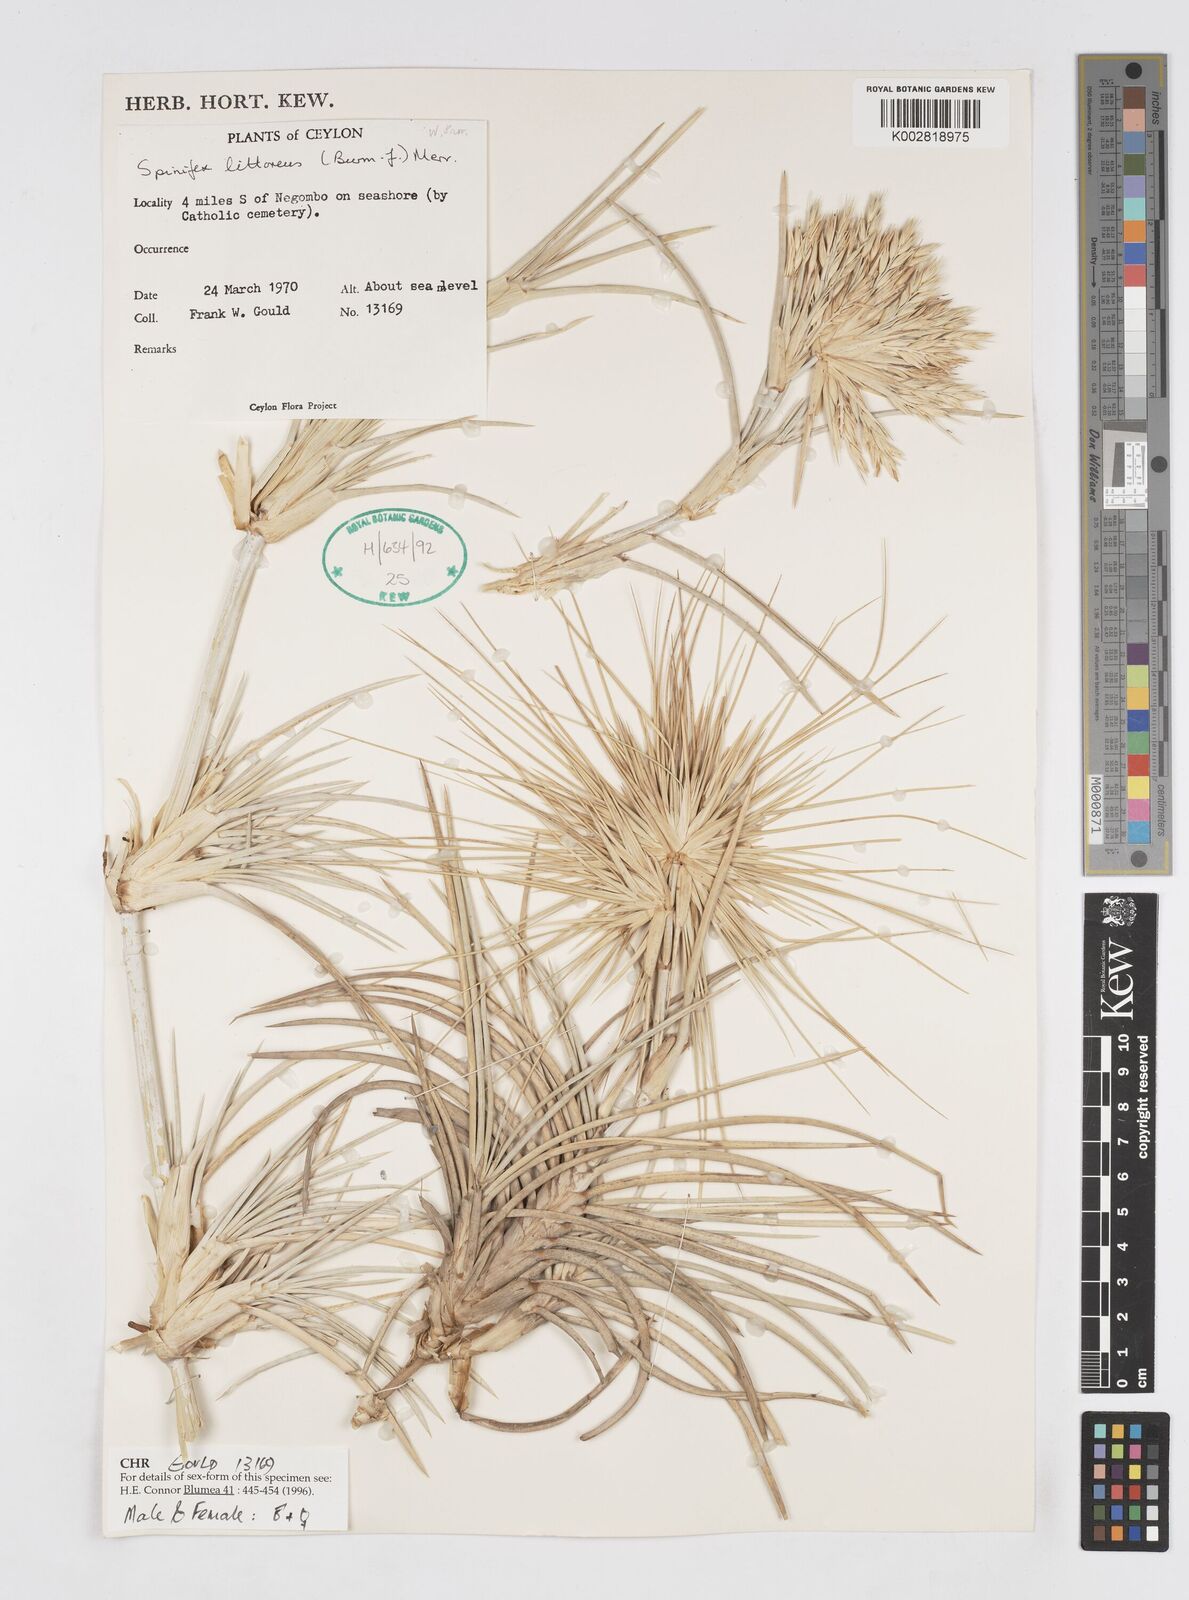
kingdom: Plantae
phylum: Tracheophyta
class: Liliopsida
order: Poales
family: Poaceae
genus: Spinifex
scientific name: Spinifex littoreus
